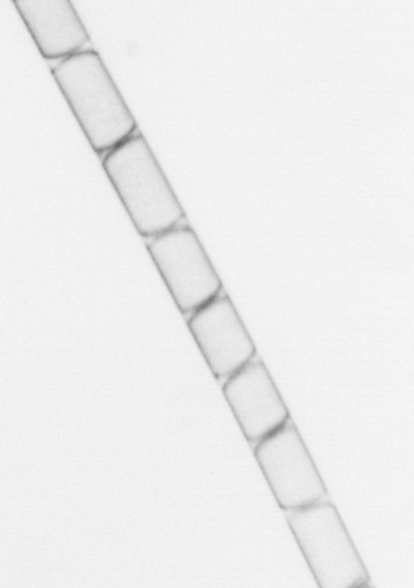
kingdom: Chromista
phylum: Ochrophyta
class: Bacillariophyceae
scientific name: Bacillariophyceae
